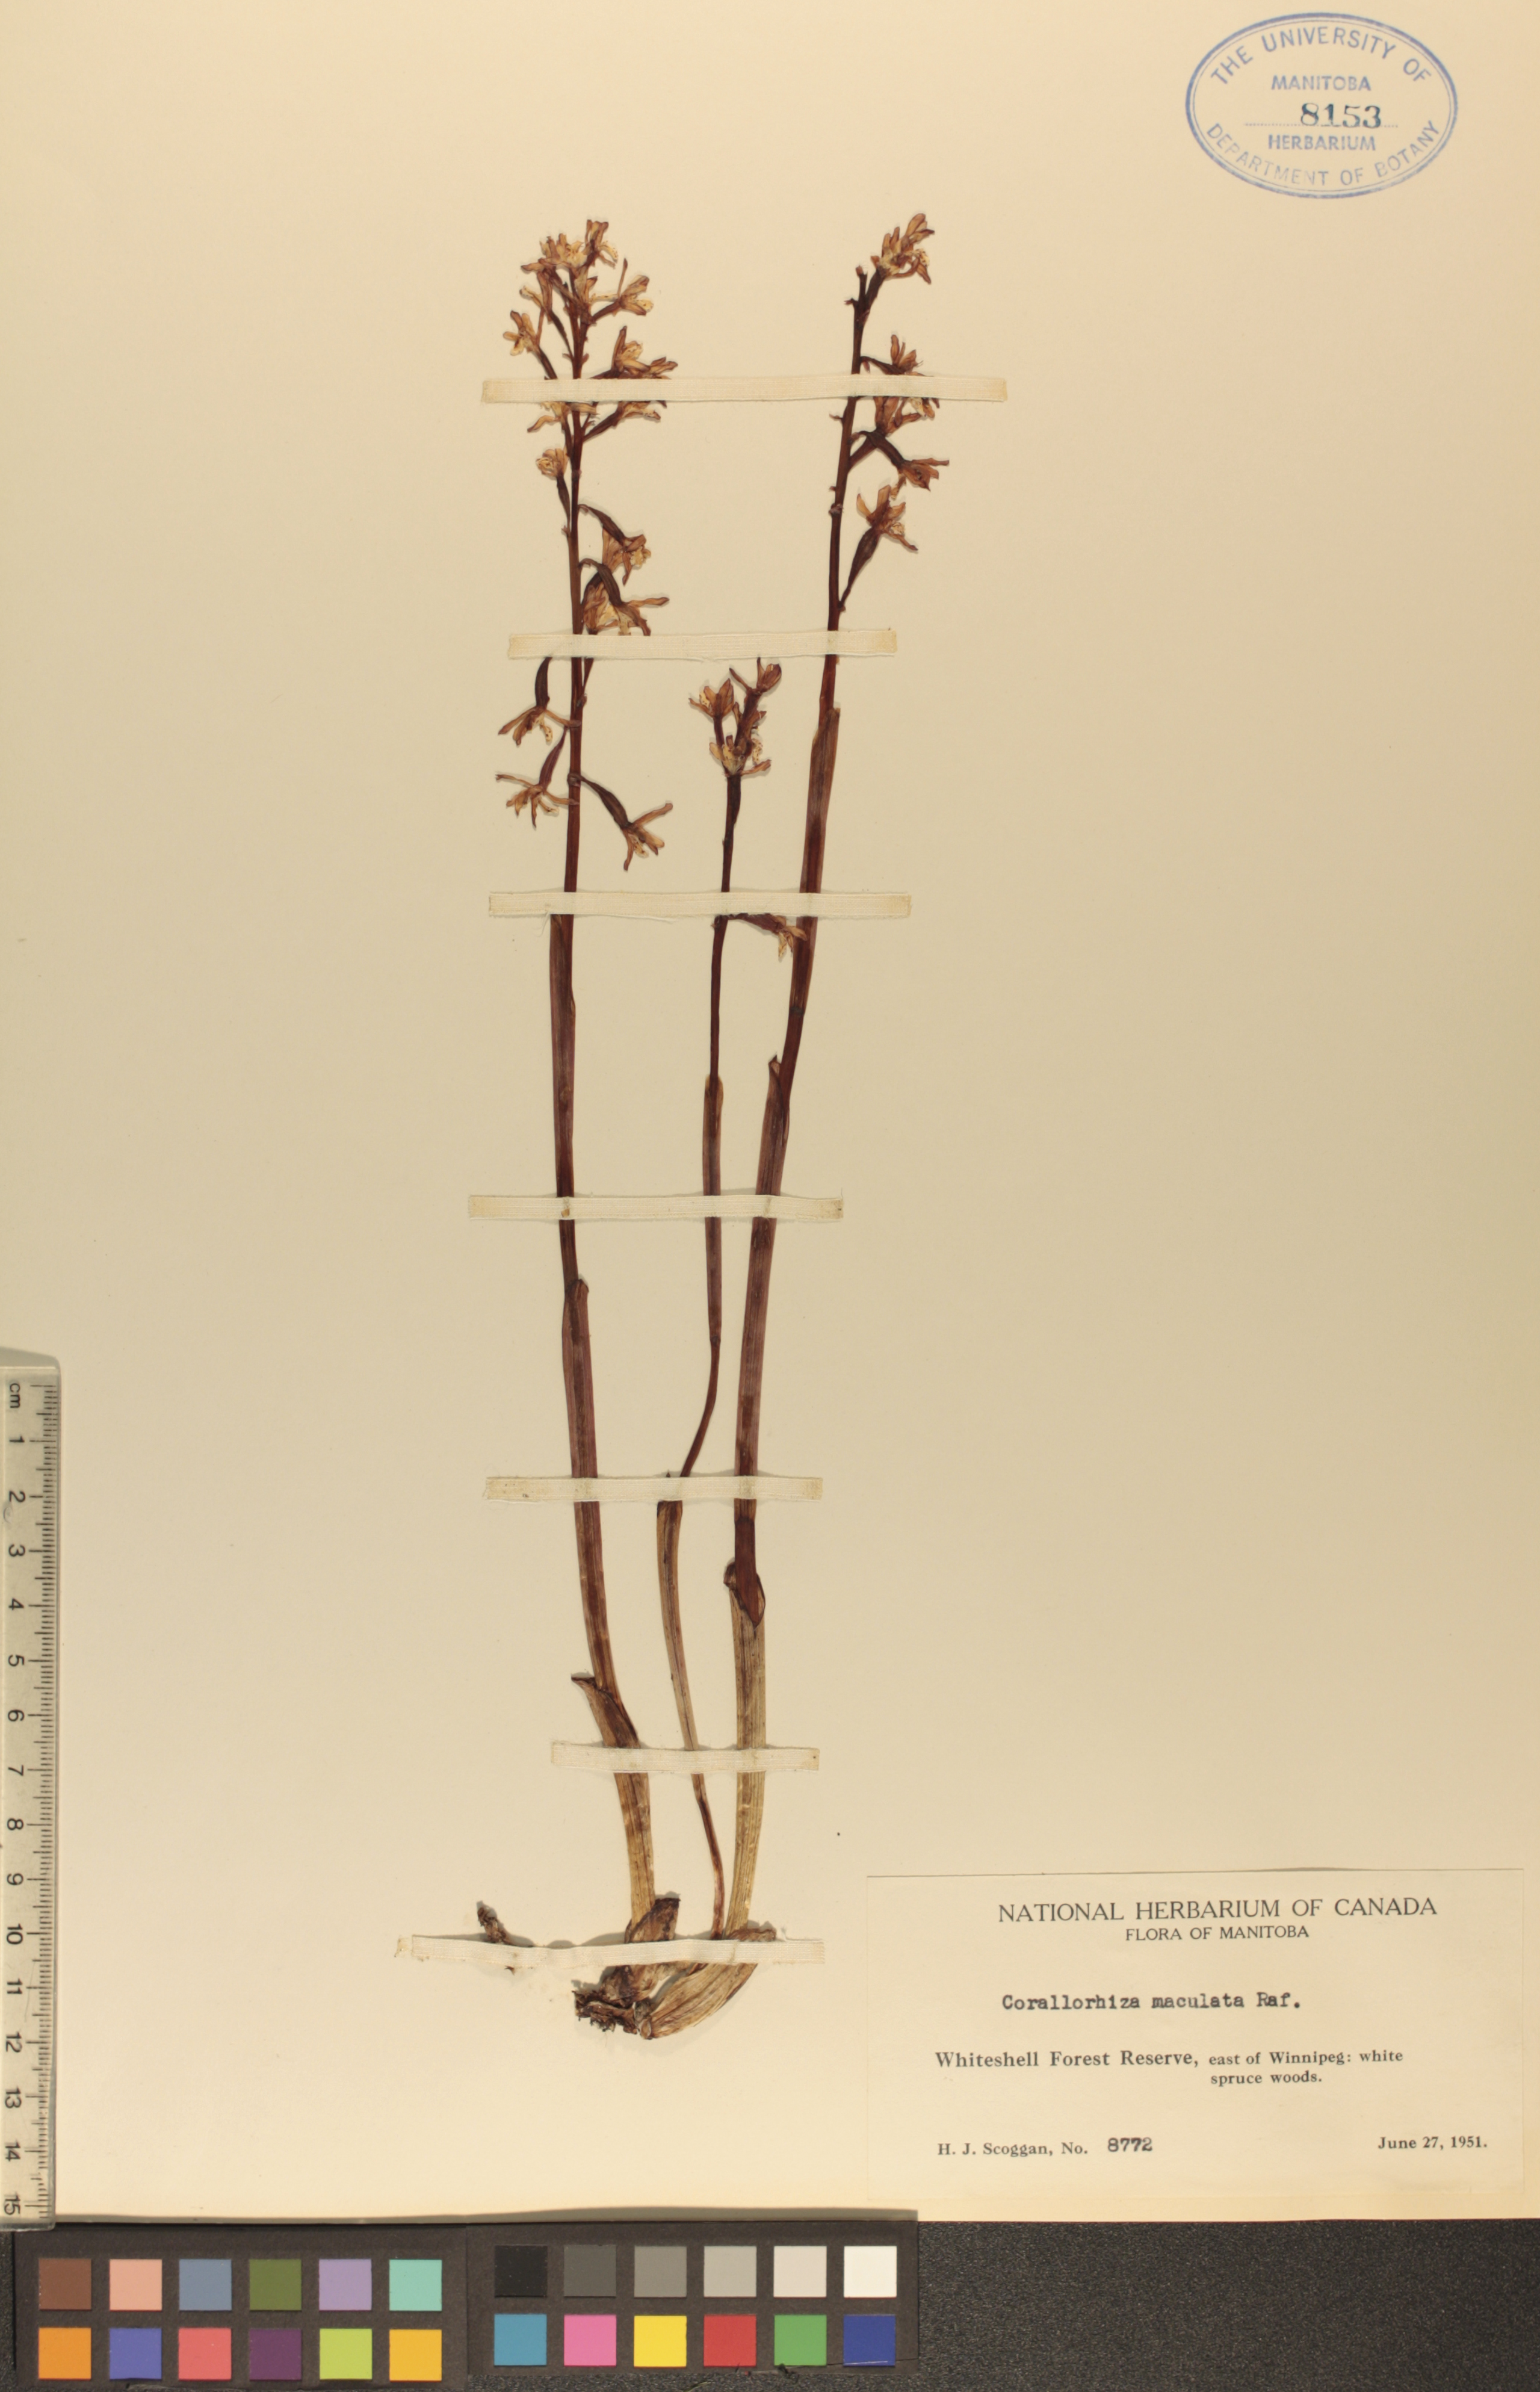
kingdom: Plantae
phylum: Tracheophyta
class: Liliopsida
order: Asparagales
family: Orchidaceae
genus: Corallorhiza
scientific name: Corallorhiza maculata
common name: Spotted coralroot
